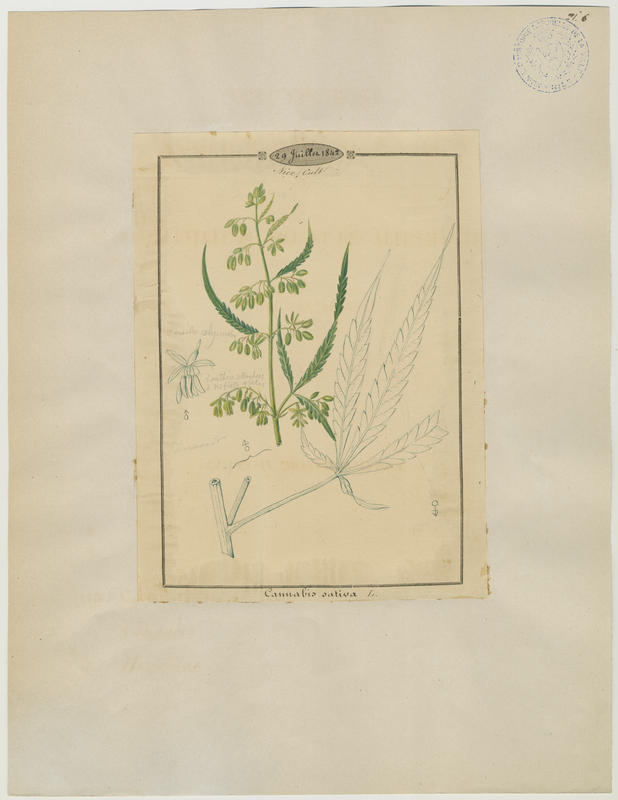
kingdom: Plantae
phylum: Tracheophyta
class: Magnoliopsida
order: Rosales
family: Cannabaceae
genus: Cannabis
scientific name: Cannabis sativa
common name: Hemp
